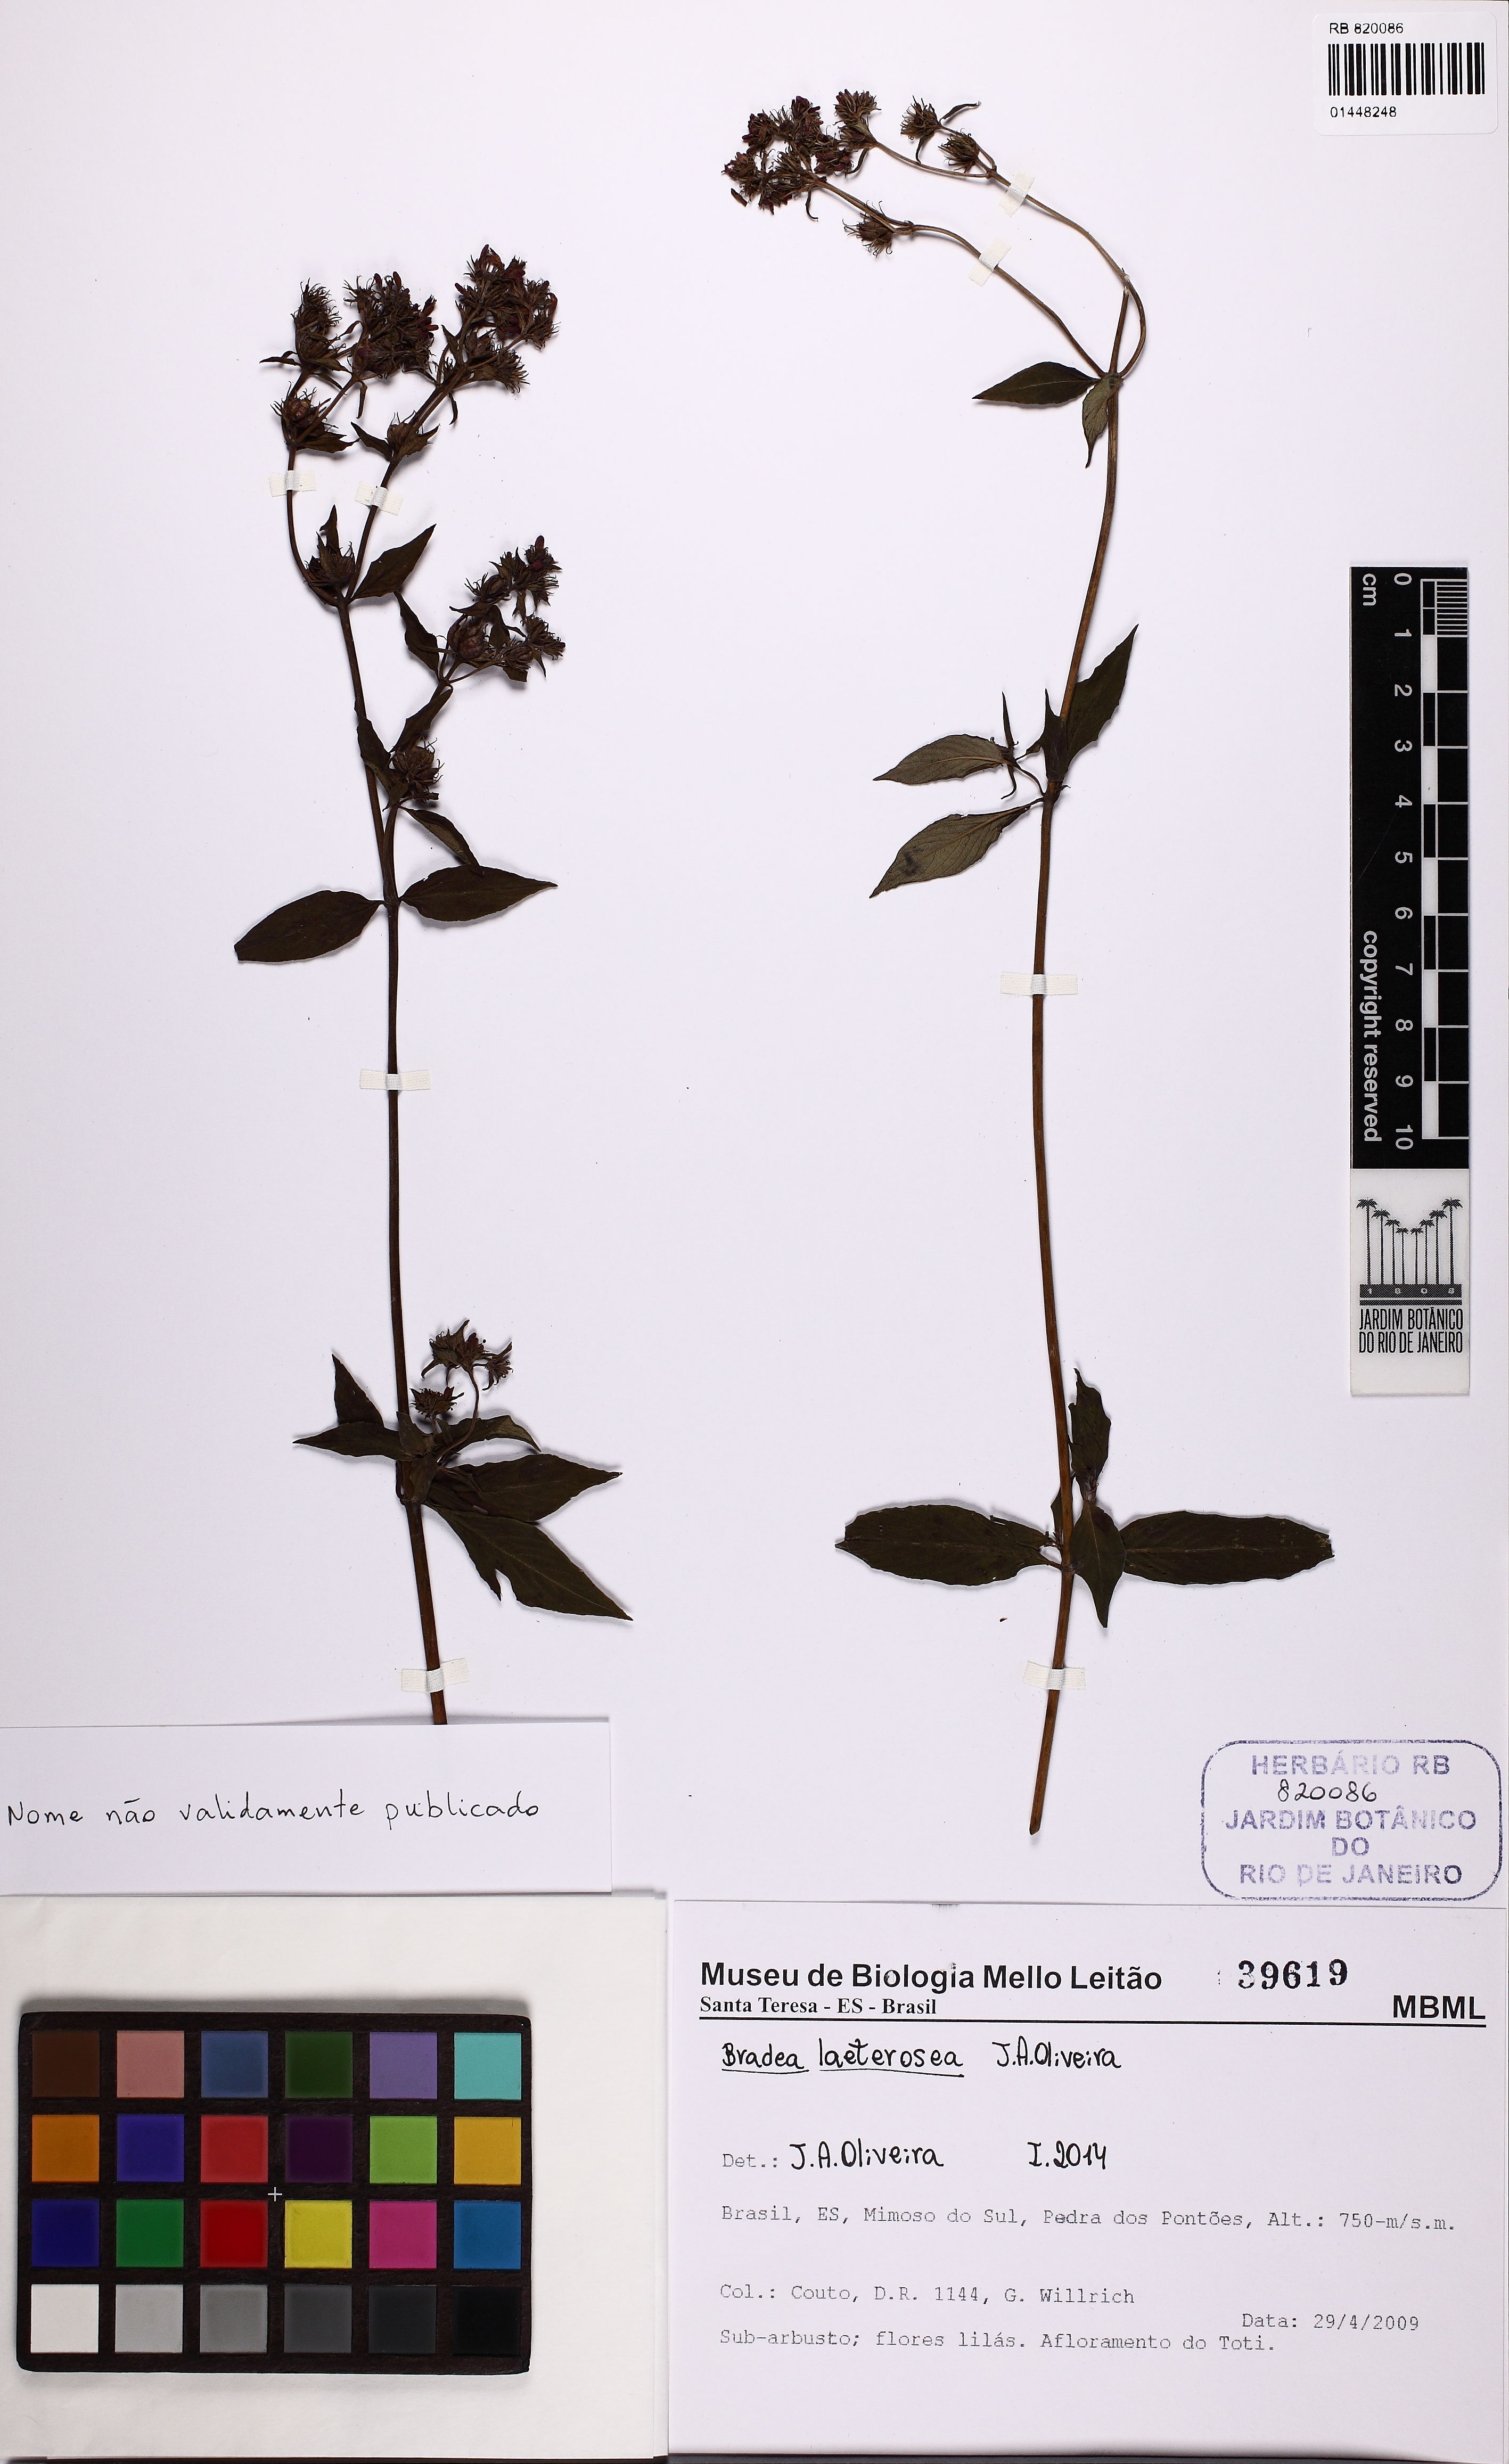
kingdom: Plantae
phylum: Tracheophyta
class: Magnoliopsida
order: Gentianales
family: Rubiaceae
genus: Bradea
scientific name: Bradea
